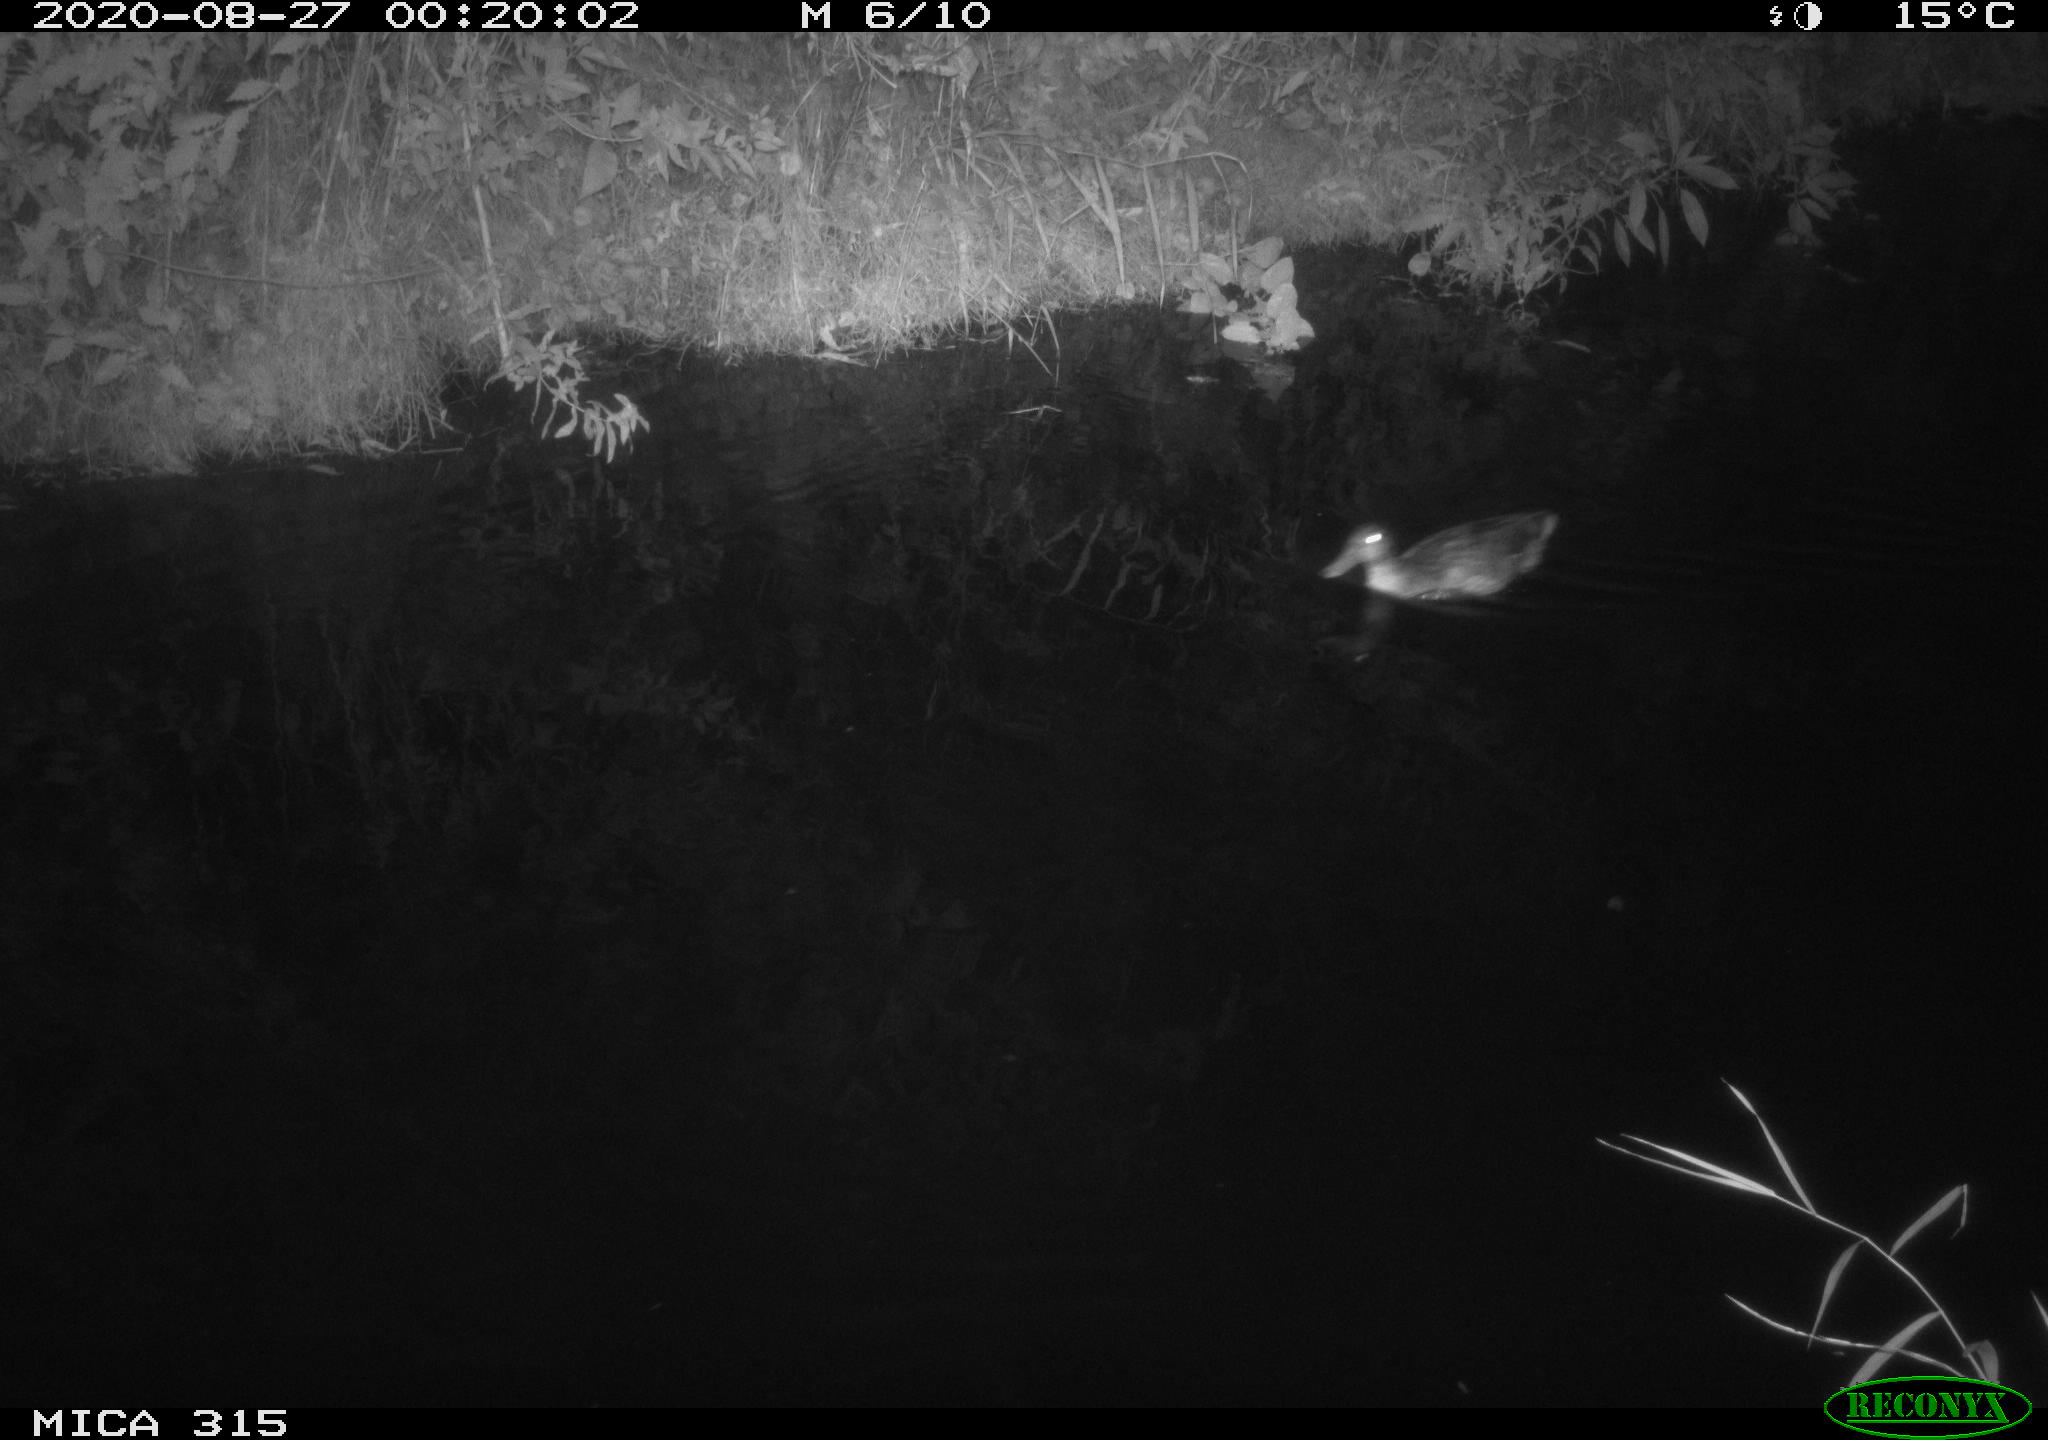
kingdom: Animalia
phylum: Chordata
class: Aves
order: Anseriformes
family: Anatidae
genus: Anas
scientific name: Anas platyrhynchos
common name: Mallard
